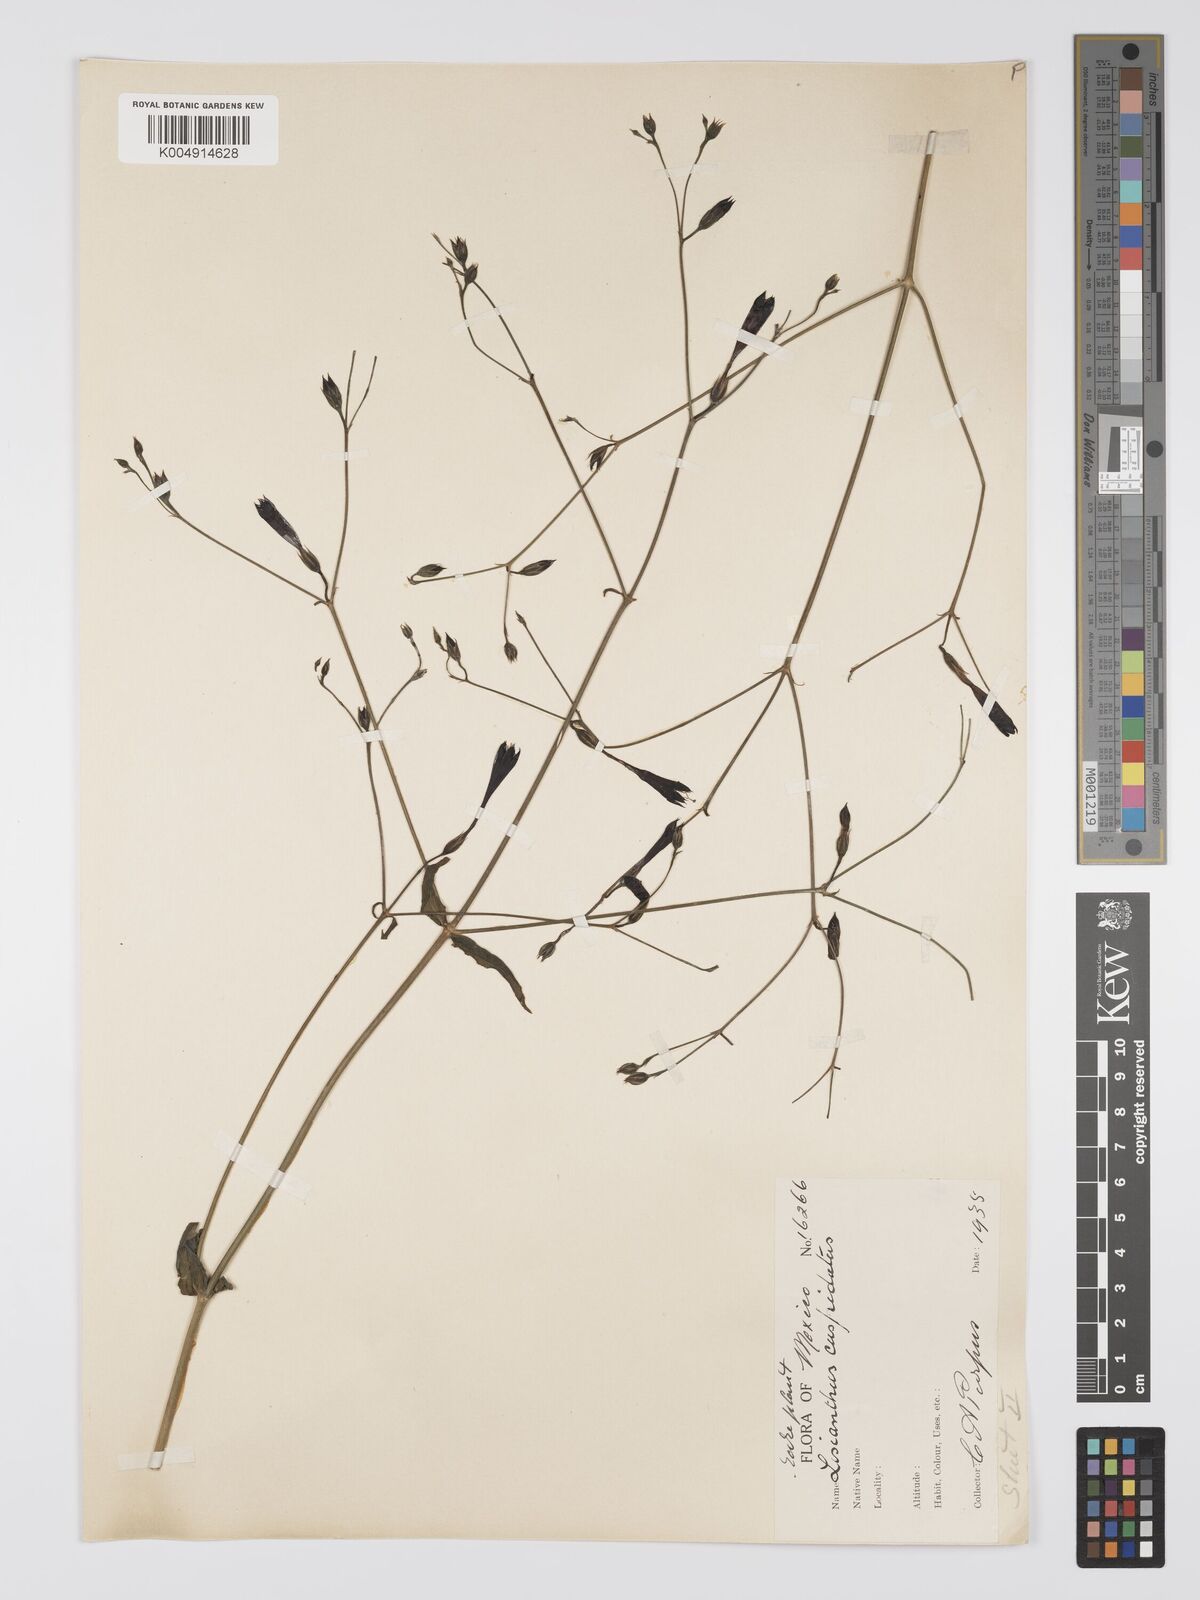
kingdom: Plantae
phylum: Tracheophyta
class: Magnoliopsida
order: Gentianales
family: Gentianaceae
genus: Lisianthius
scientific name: Lisianthius cuspidatus
